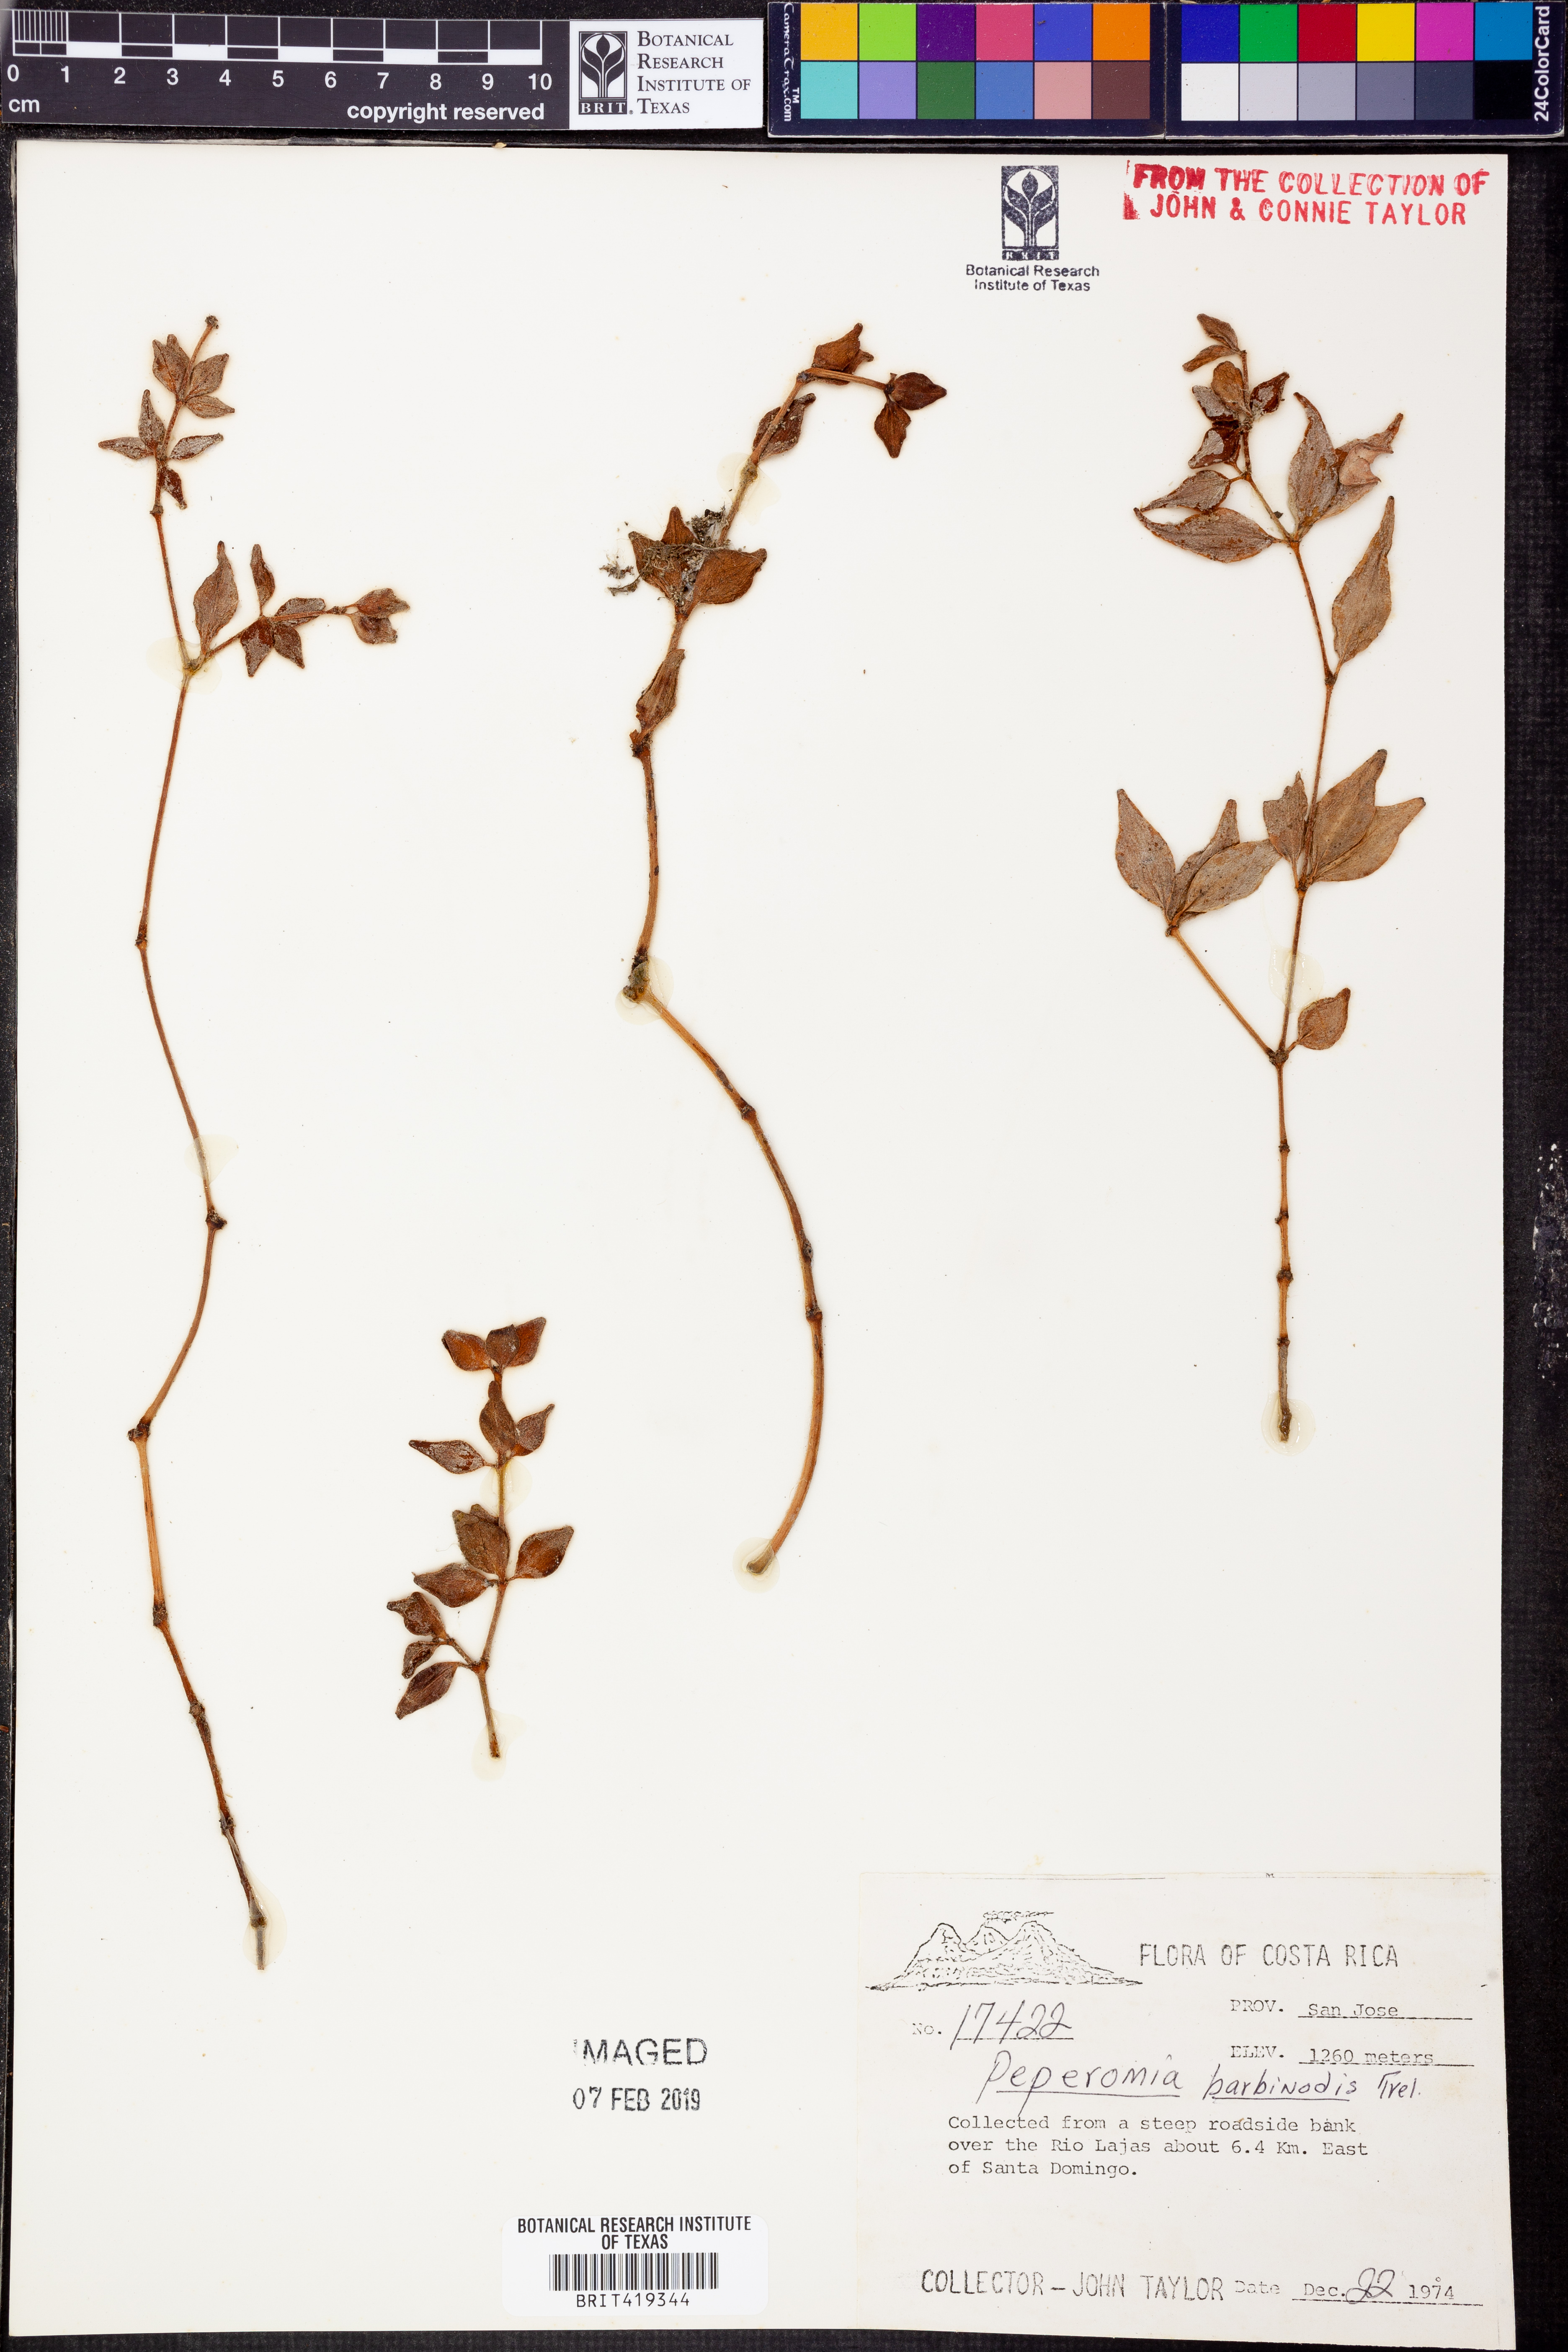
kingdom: Plantae
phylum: Tracheophyta
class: Magnoliopsida
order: Piperales
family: Piperaceae
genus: Peperomia
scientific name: Peperomia lanceolata
